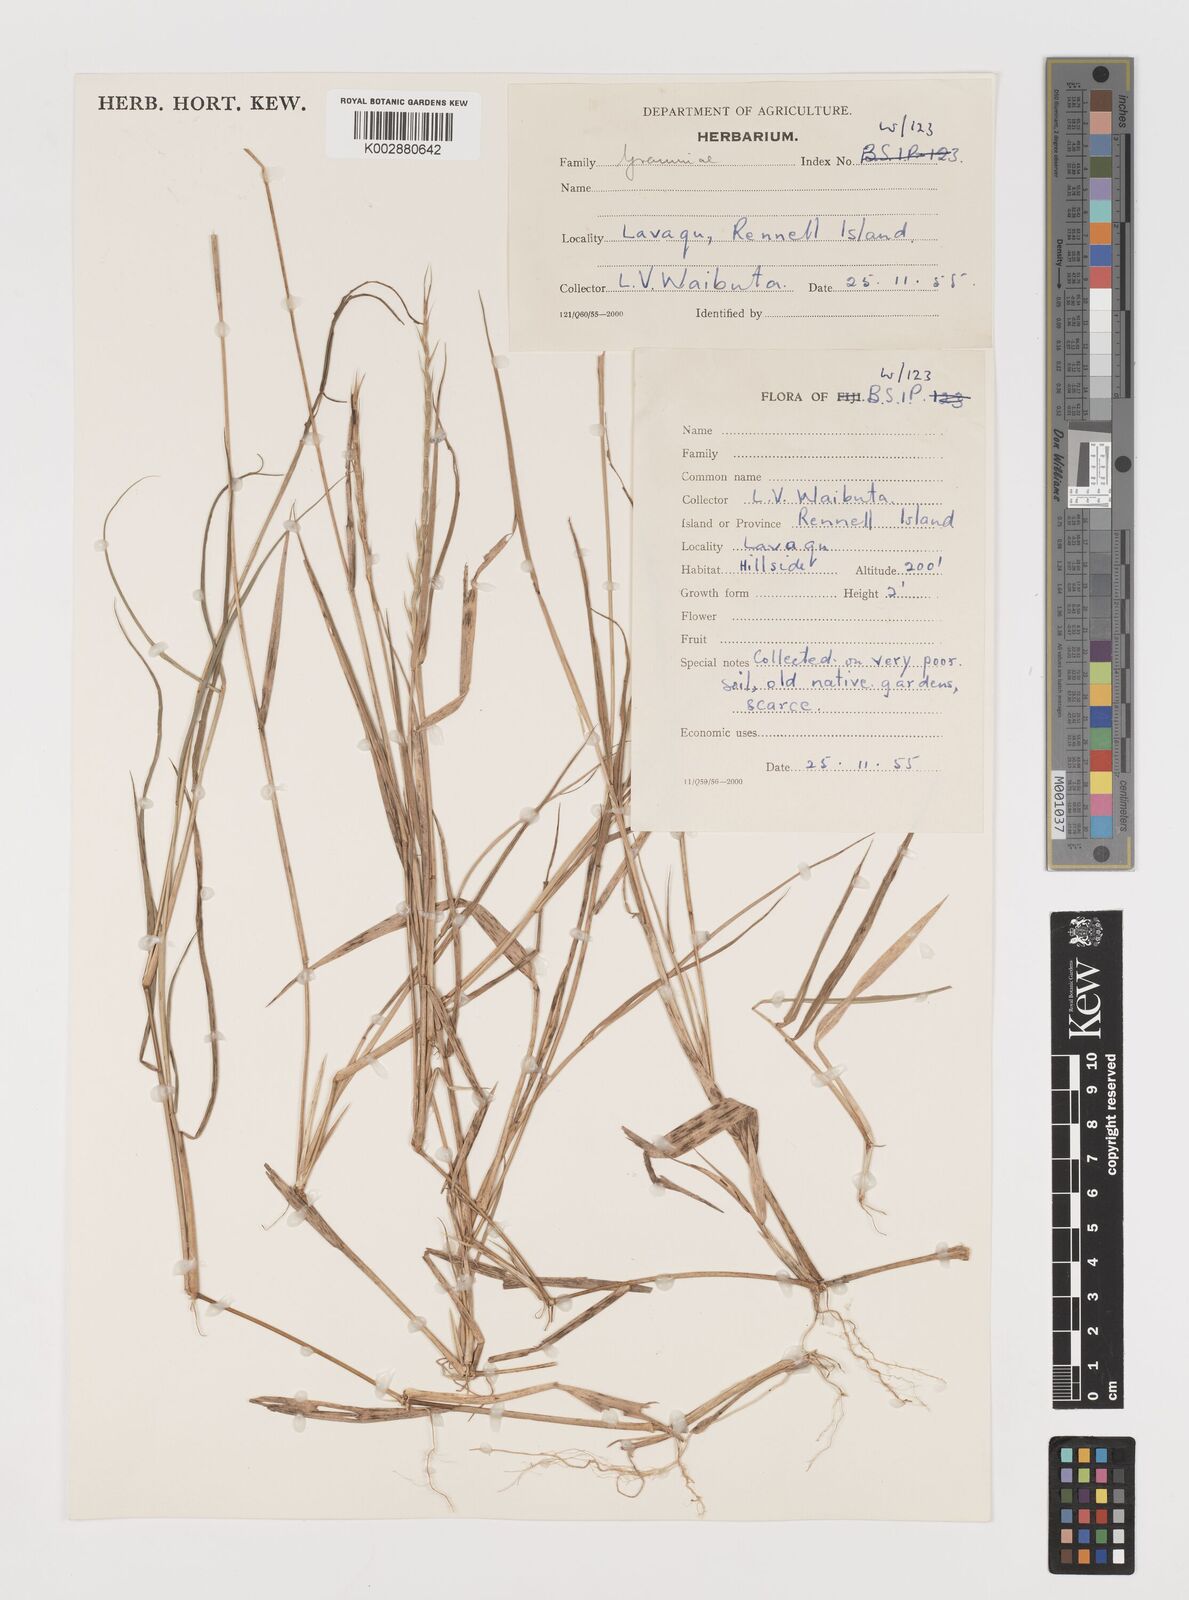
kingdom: Plantae
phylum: Tracheophyta
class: Liliopsida
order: Poales
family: Poaceae
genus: Lepturus
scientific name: Lepturus
